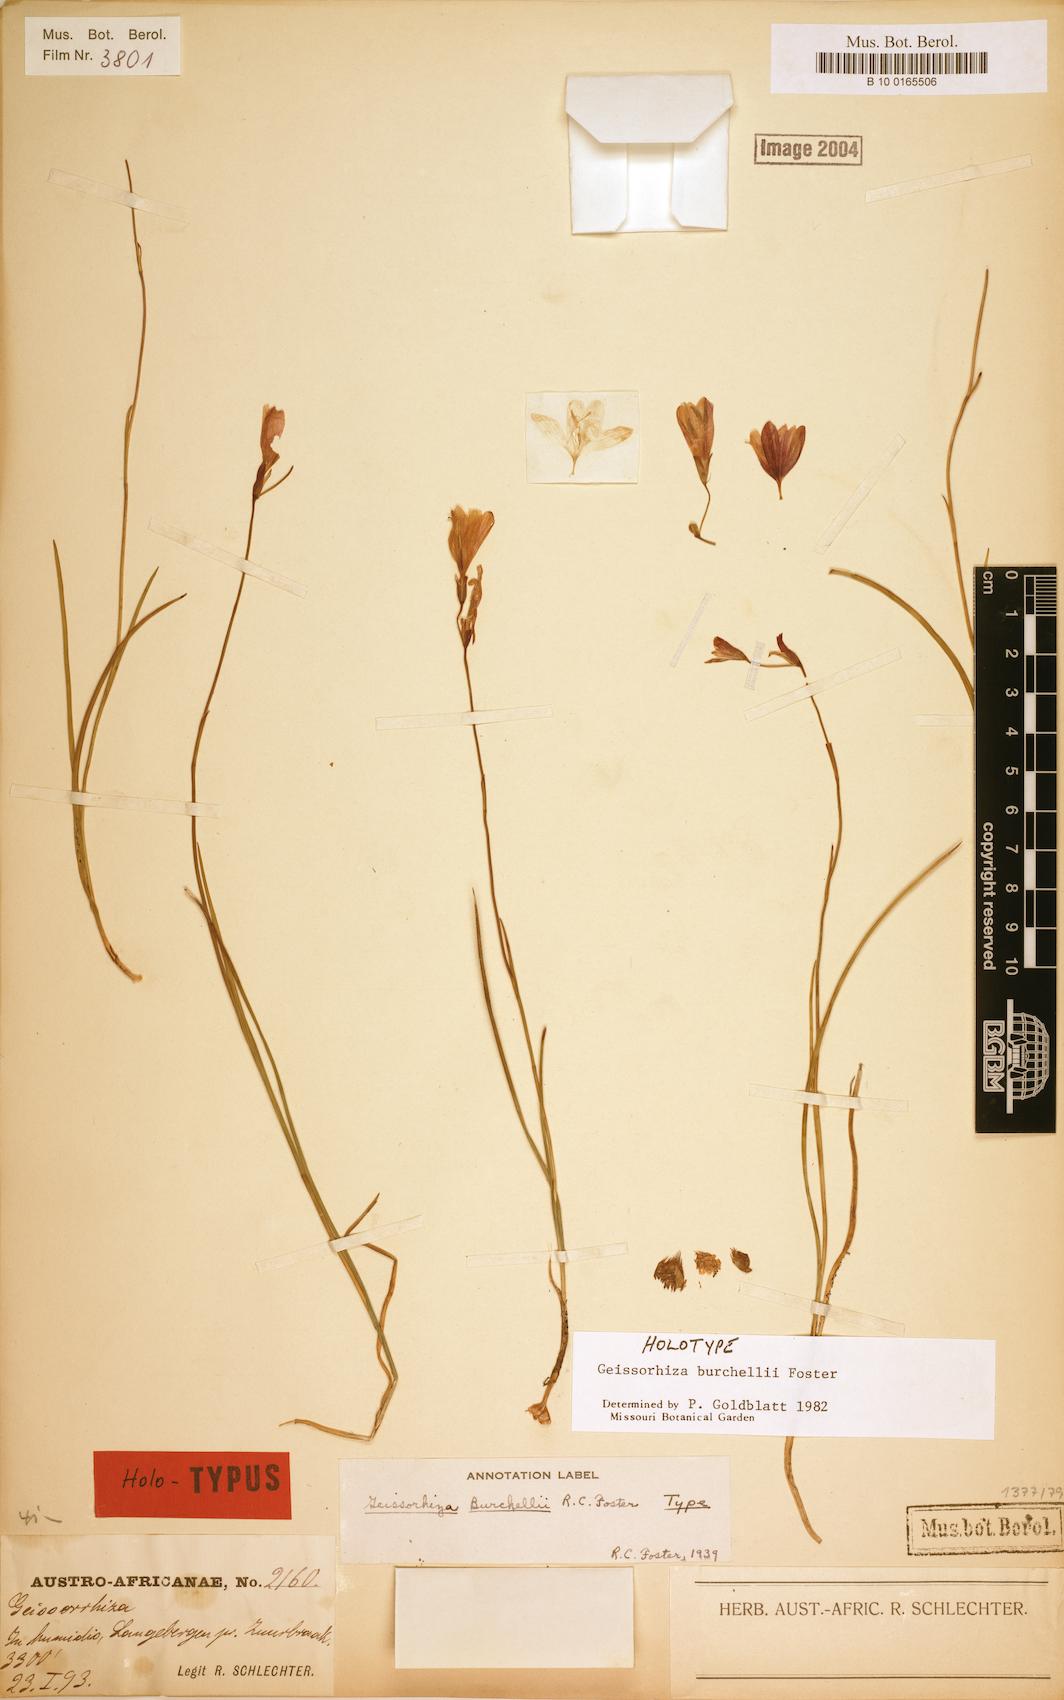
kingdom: Plantae
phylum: Tracheophyta
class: Liliopsida
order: Asparagales
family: Iridaceae
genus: Geissorhiza
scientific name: Geissorhiza burchellii
